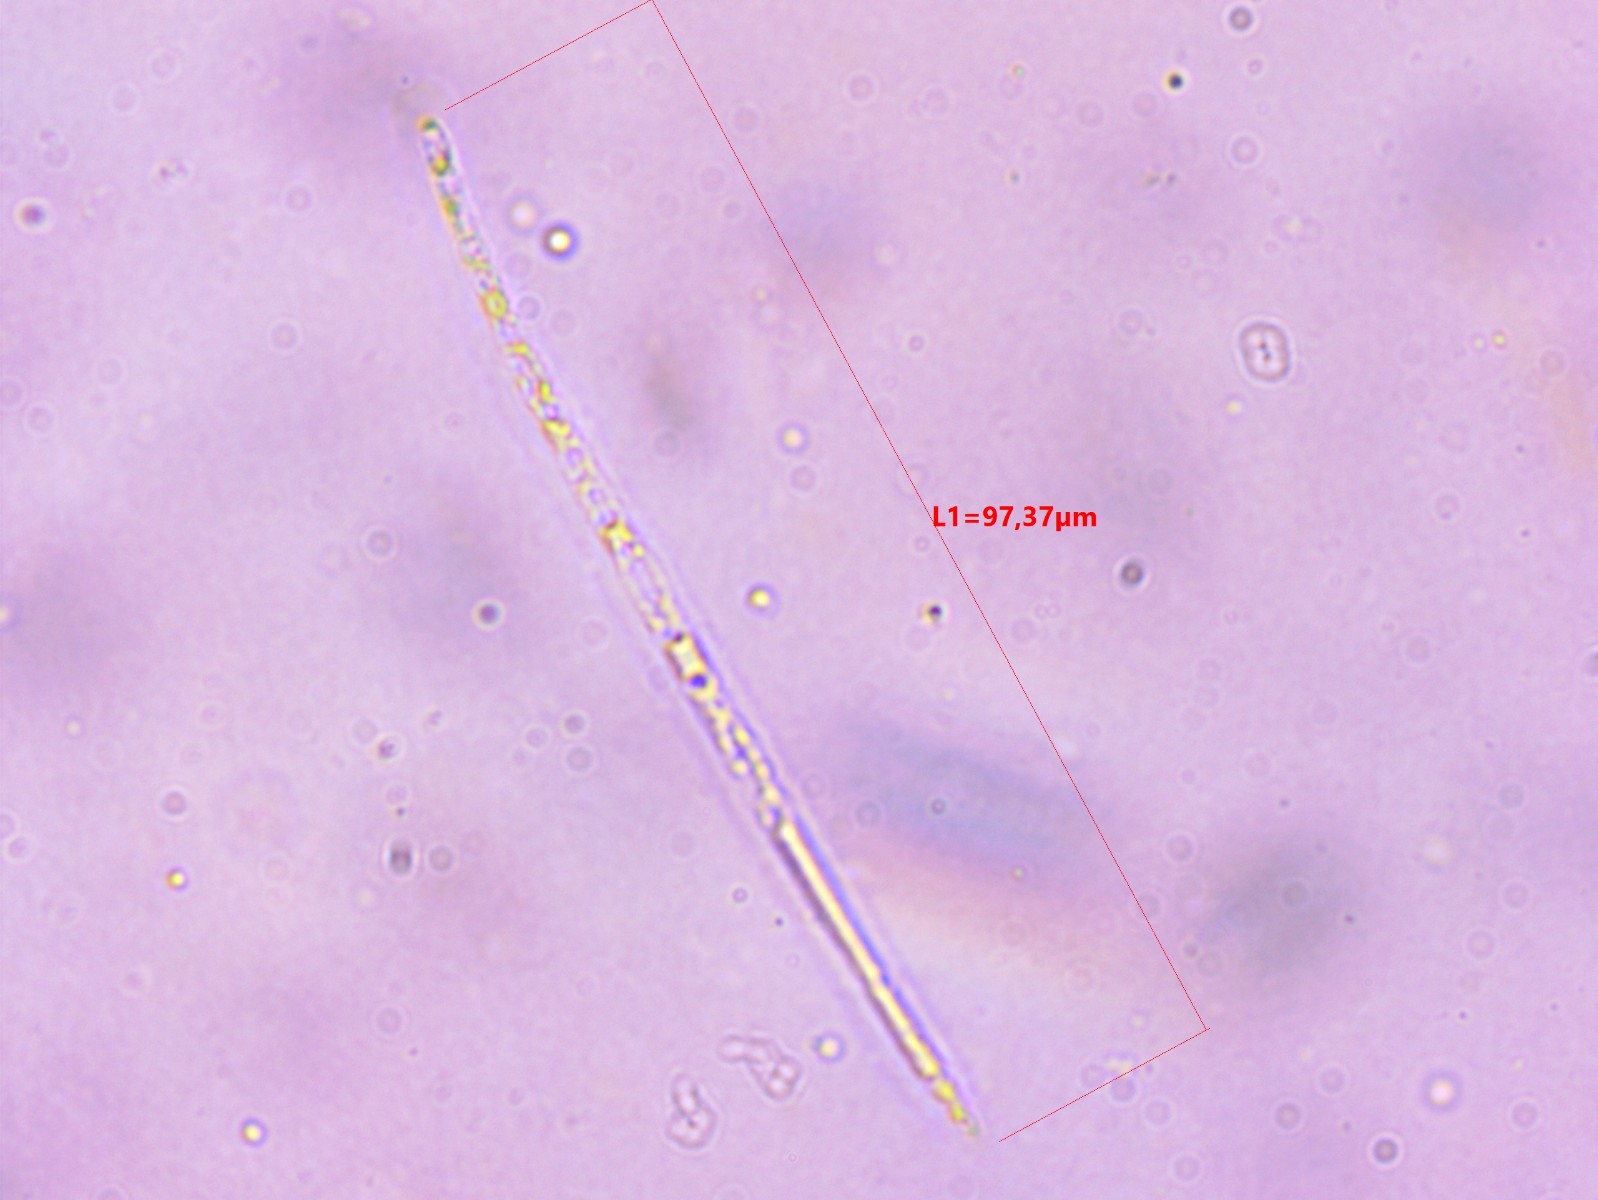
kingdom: Fungi
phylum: Ascomycota
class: Leotiomycetes
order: Rhytismatales
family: Rhytismataceae
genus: Lophodermium
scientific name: Lophodermium piceae
